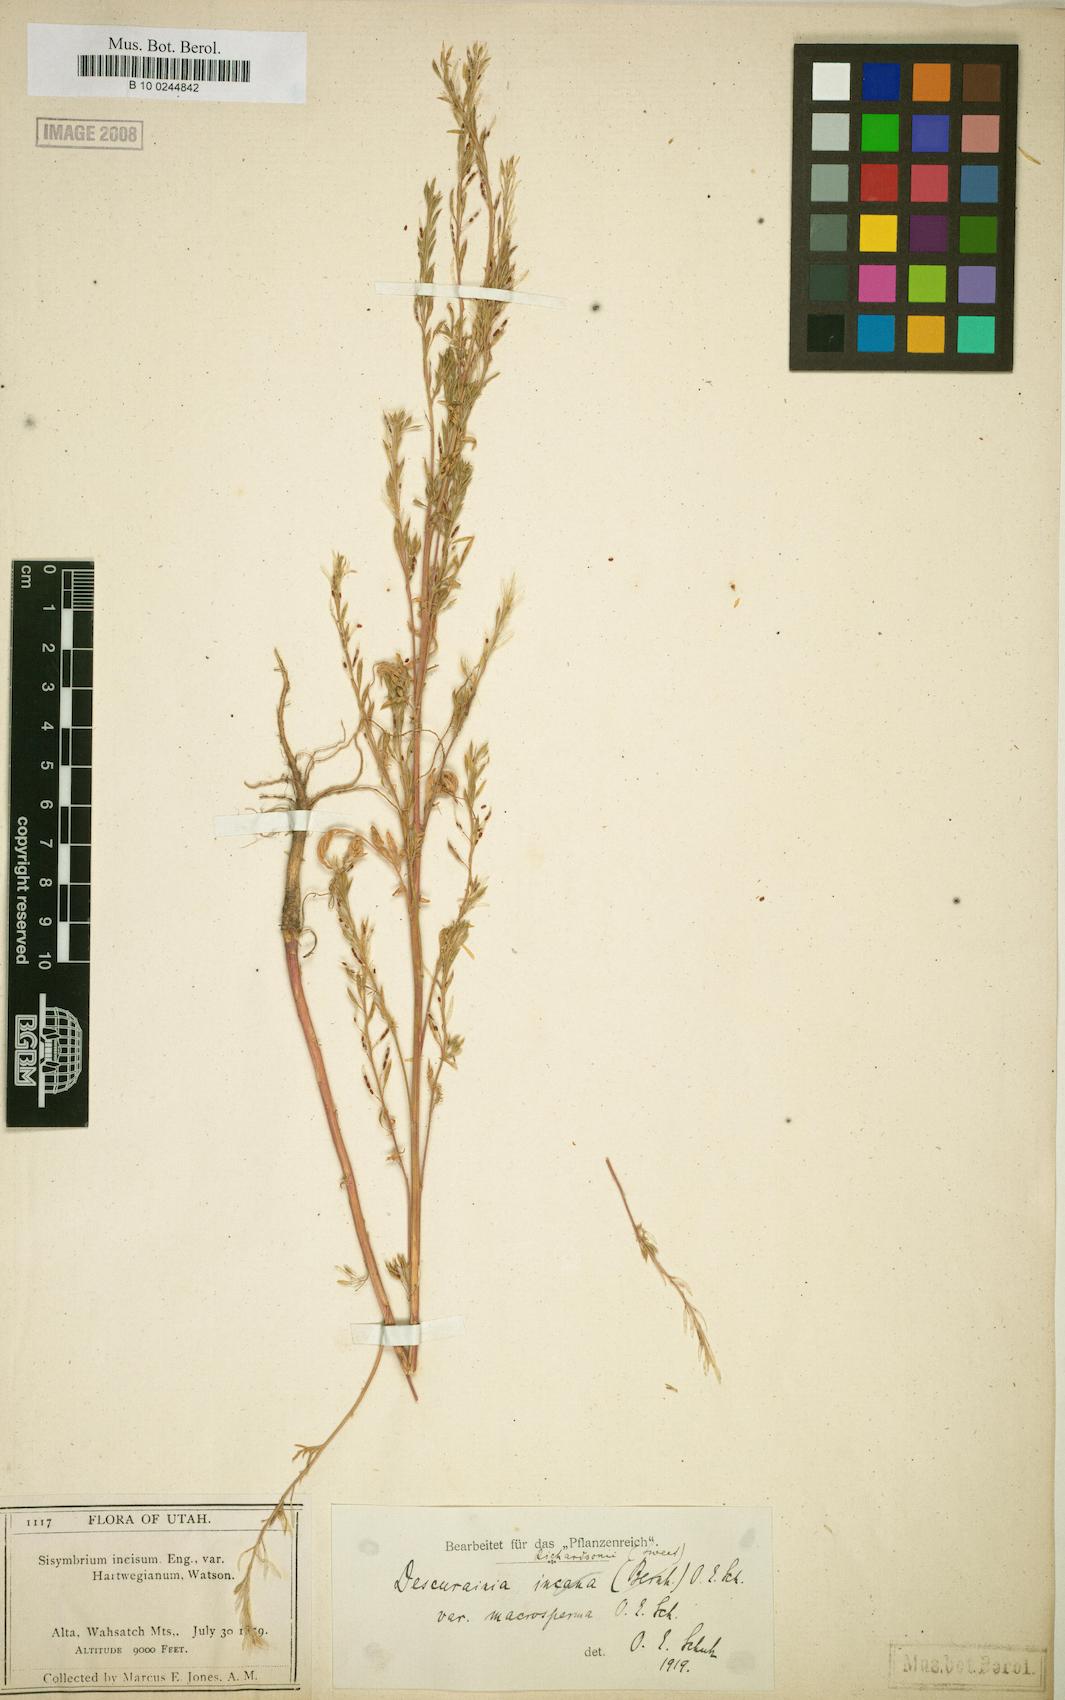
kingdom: Plantae
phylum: Tracheophyta
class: Magnoliopsida
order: Brassicales
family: Brassicaceae
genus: Descurainia
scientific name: Descurainia incana
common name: Gray tansy mustard
